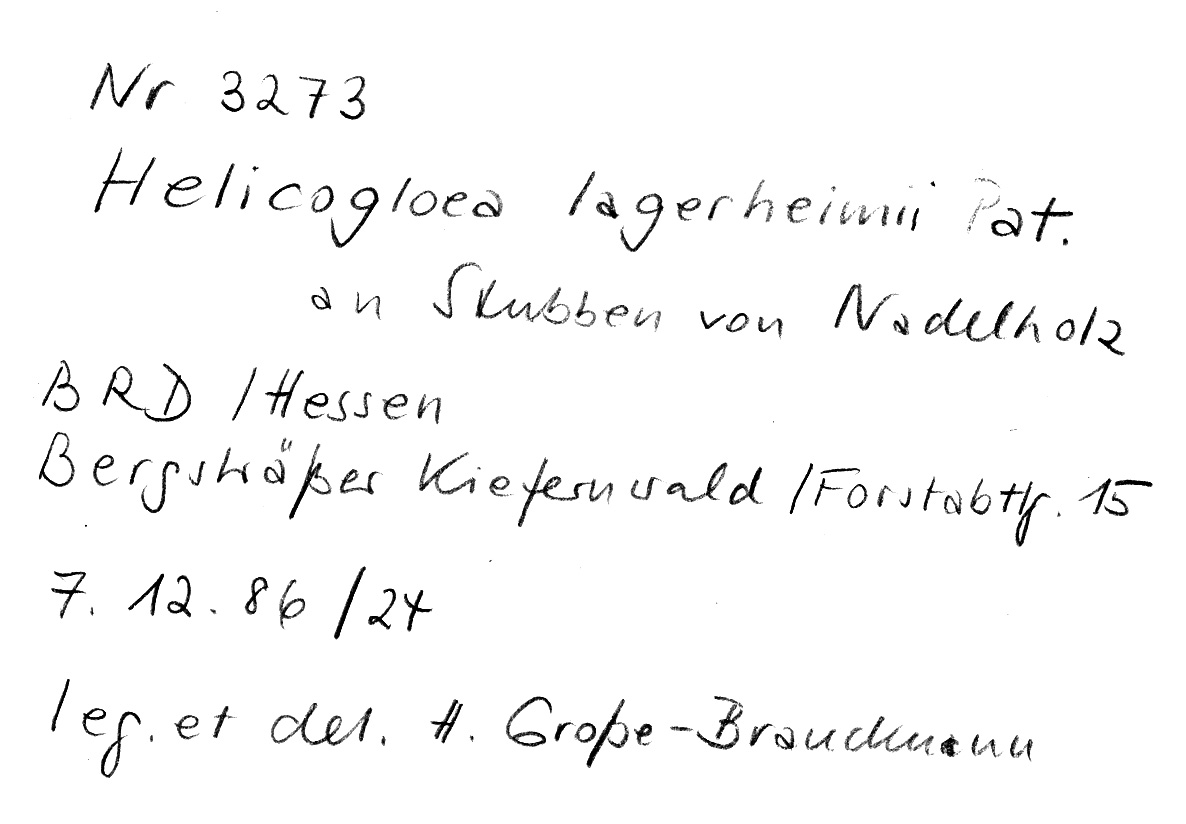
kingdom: Fungi
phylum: Basidiomycota
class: Atractiellomycetes
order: Atractiellales
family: Phleogenaceae
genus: Helicogloea
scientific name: Helicogloea lagerheimii
